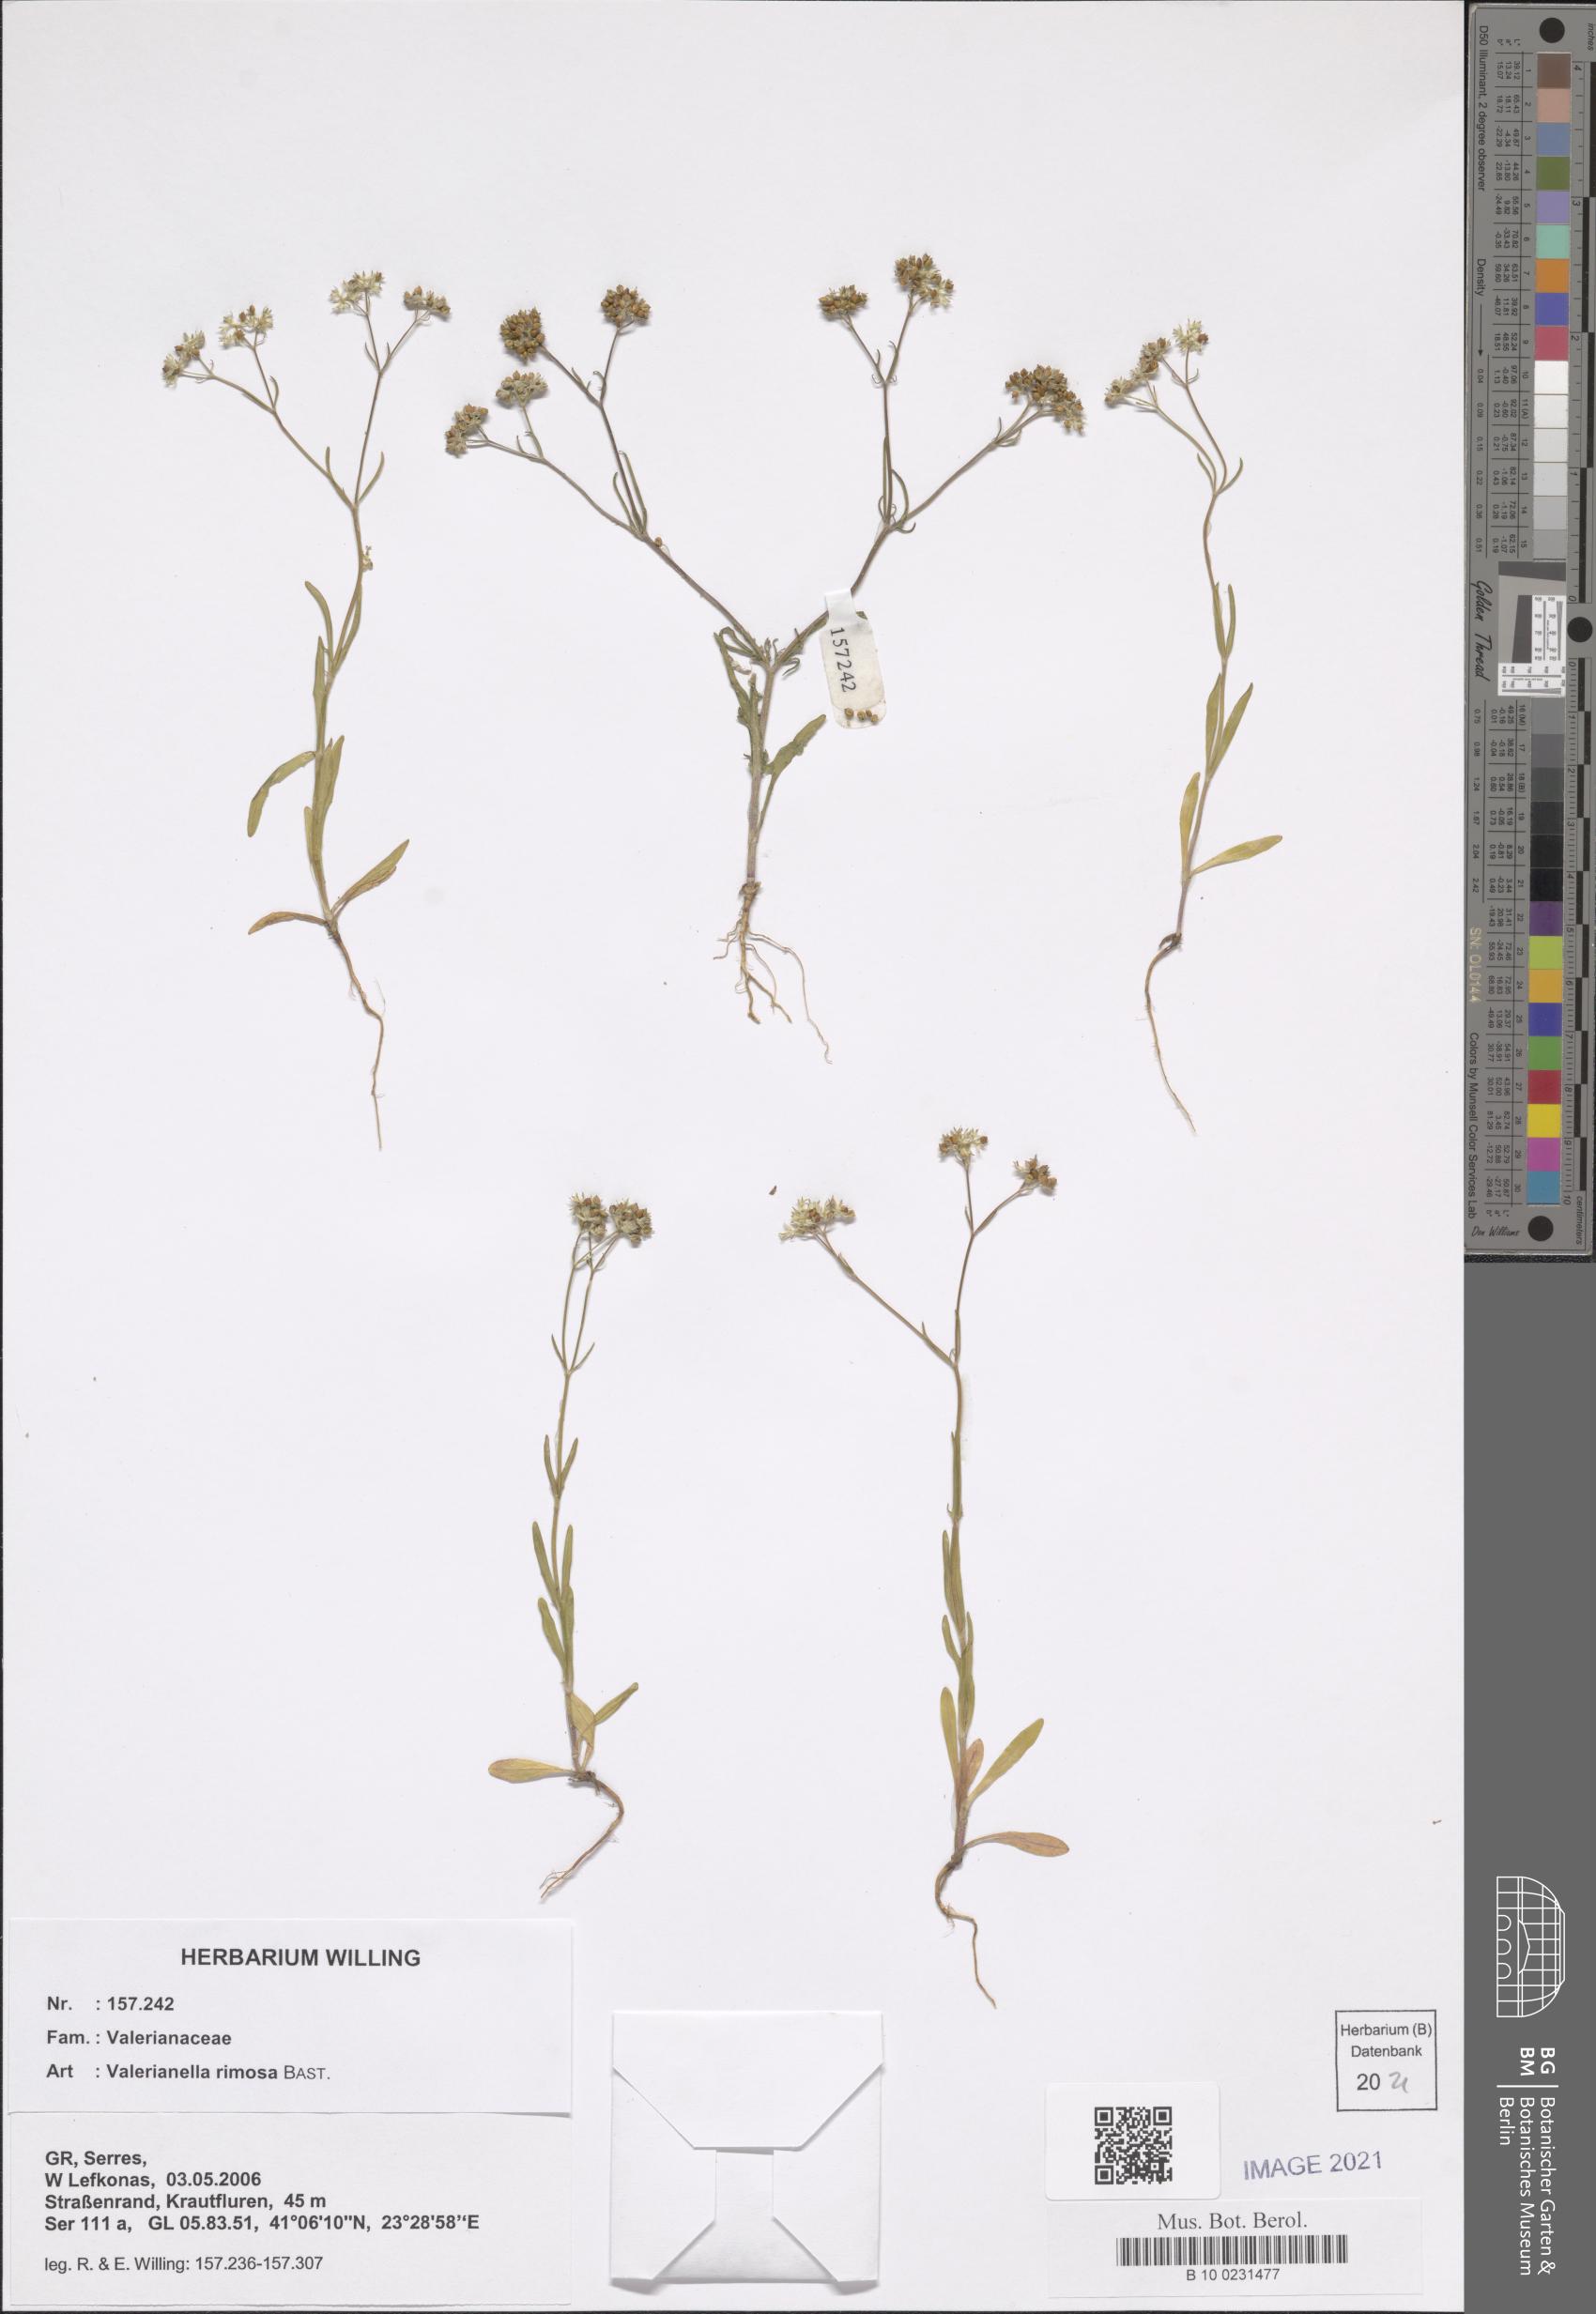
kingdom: Plantae
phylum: Tracheophyta
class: Magnoliopsida
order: Dipsacales
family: Caprifoliaceae
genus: Valerianella
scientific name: Valerianella rimosa
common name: Broad-fruited cornsalad
